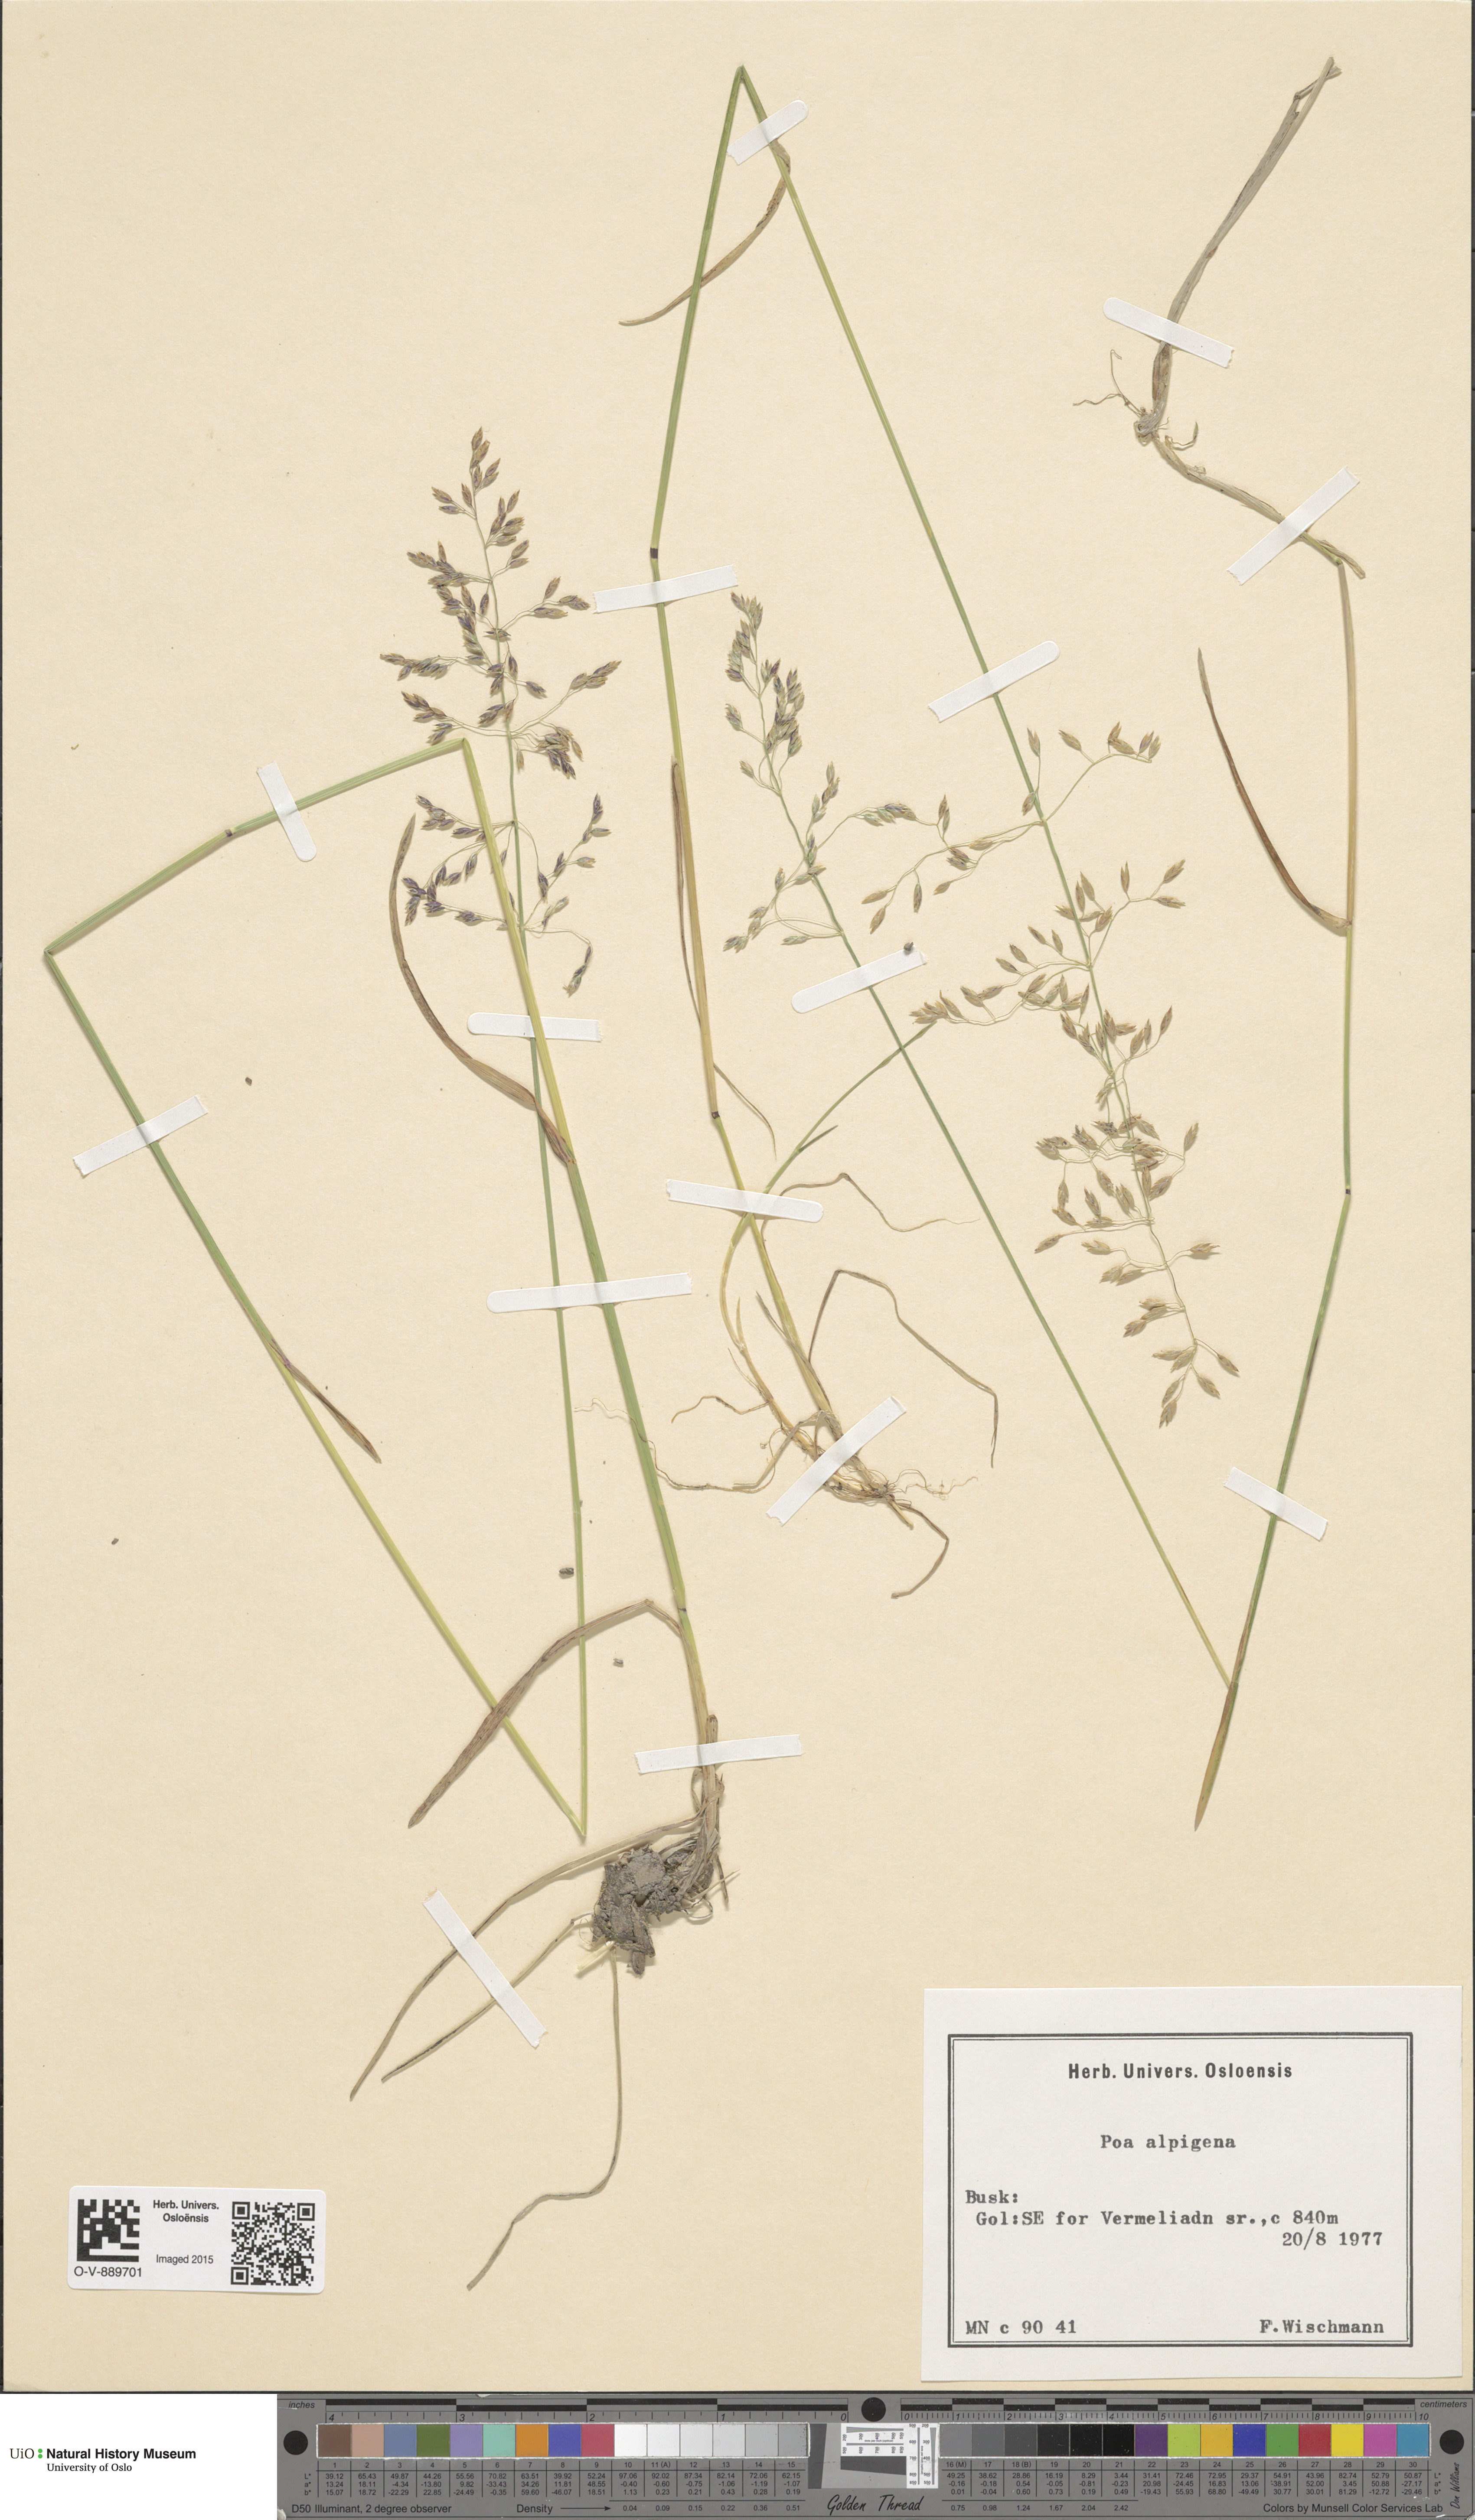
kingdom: Plantae
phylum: Tracheophyta
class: Liliopsida
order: Poales
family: Poaceae
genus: Poa
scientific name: Poa alpigena
